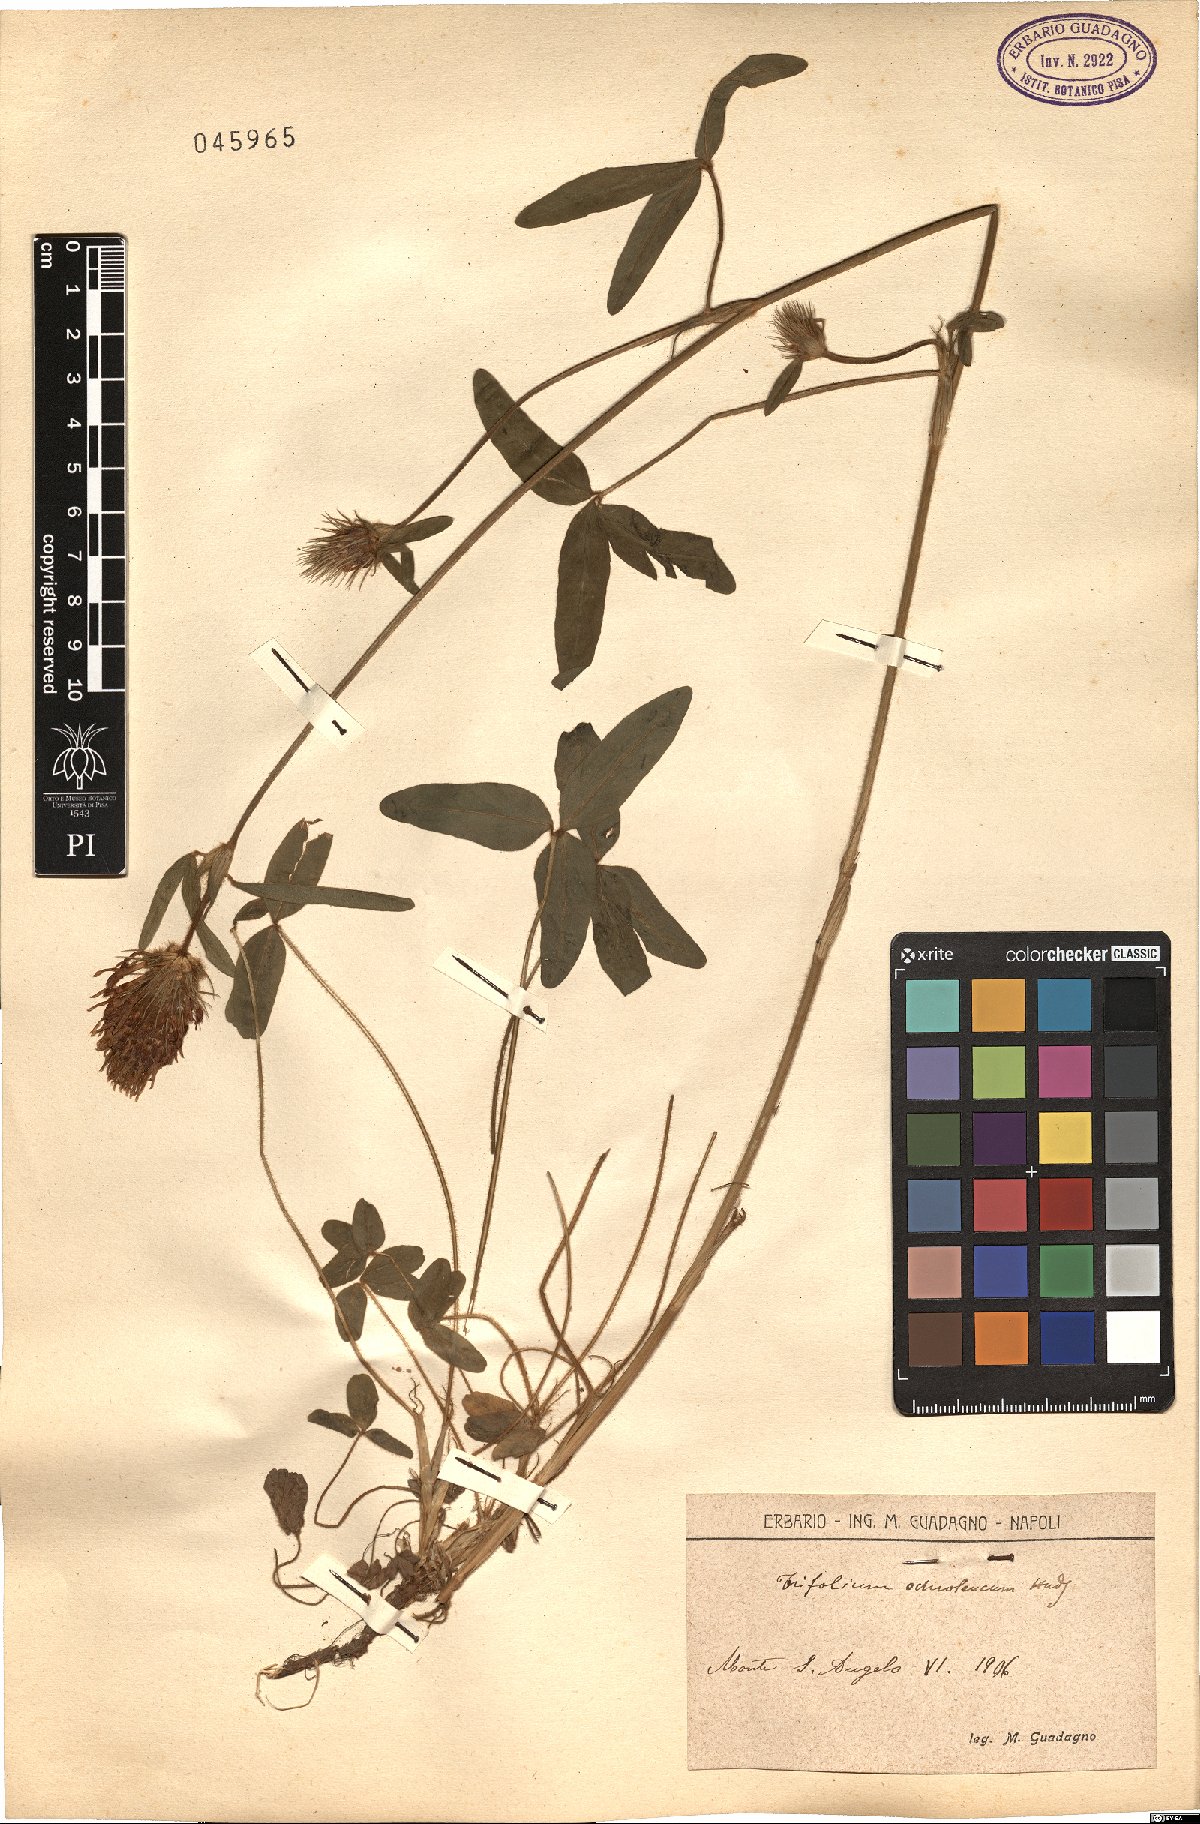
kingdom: Plantae
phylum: Tracheophyta
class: Magnoliopsida
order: Fabales
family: Fabaceae
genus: Trifolium
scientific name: Trifolium ochroleucon
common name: Sulphur clover
